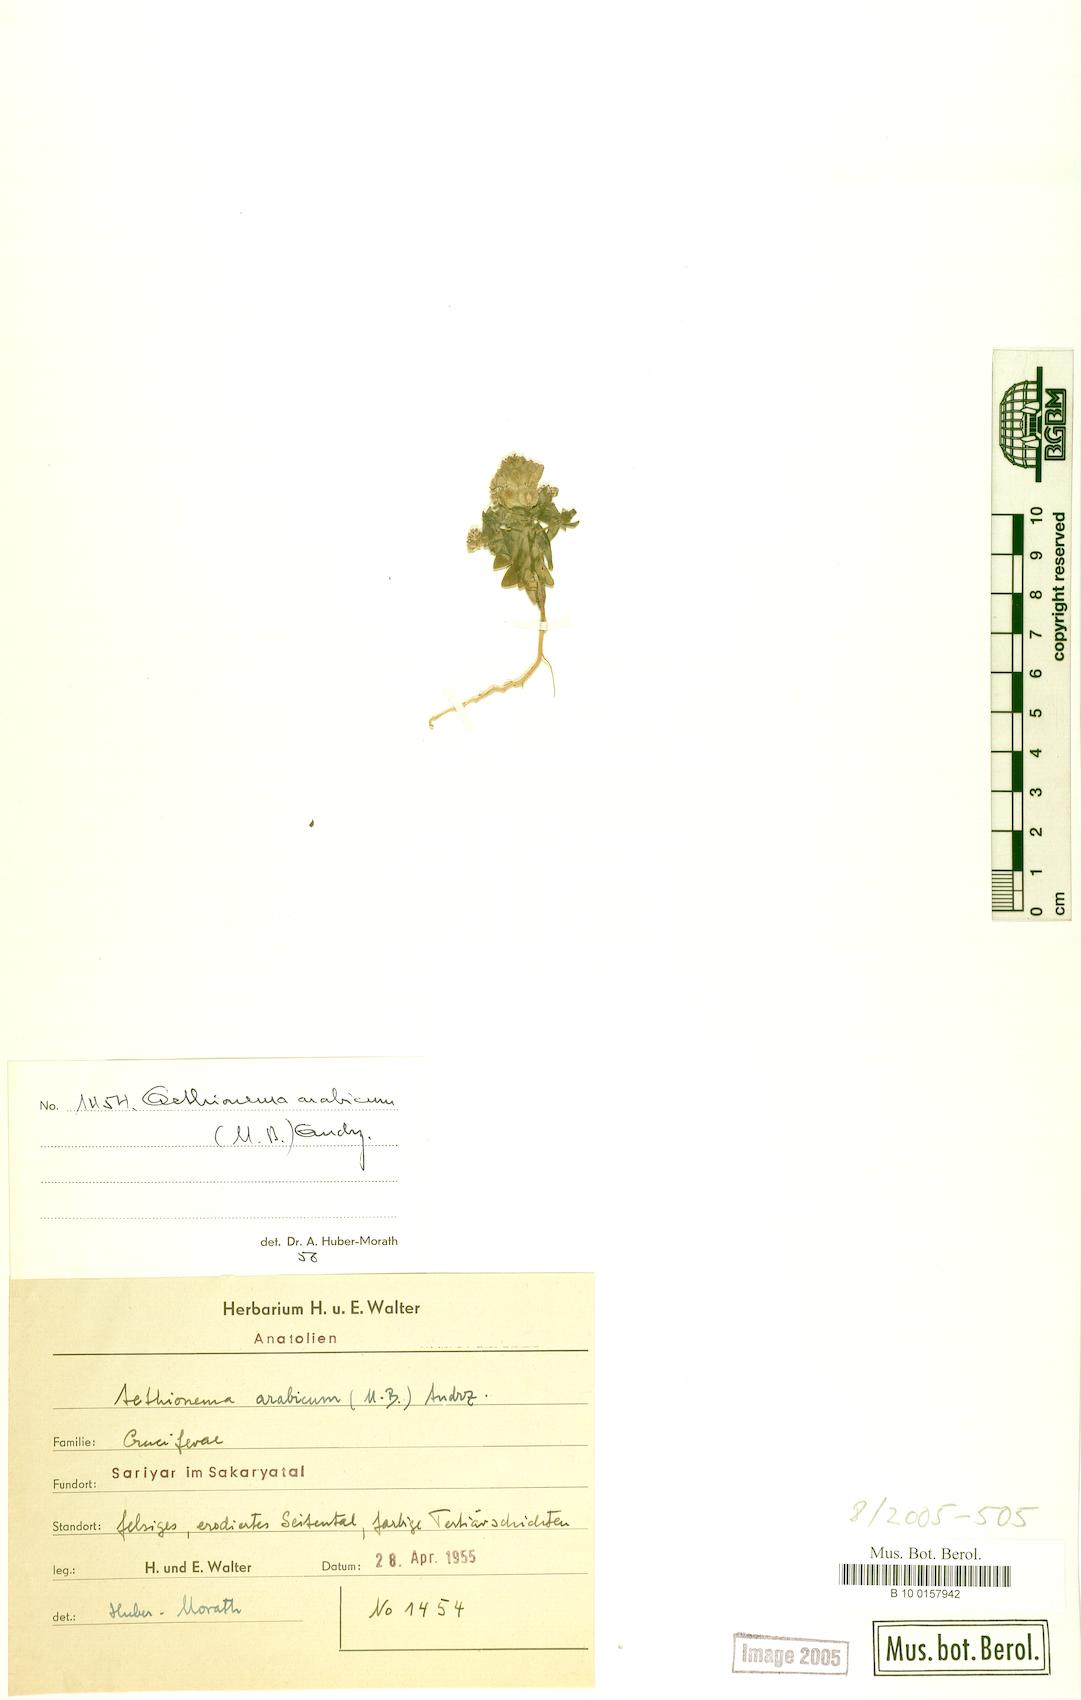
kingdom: Plantae
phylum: Tracheophyta
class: Magnoliopsida
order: Brassicales
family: Brassicaceae
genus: Aethionema
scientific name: Aethionema arabicum
